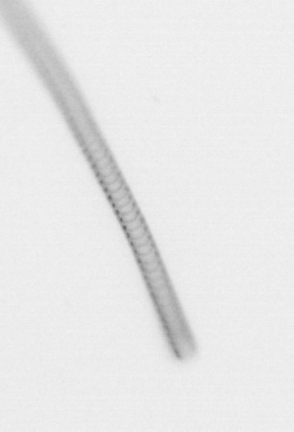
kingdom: Chromista
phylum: Ochrophyta
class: Bacillariophyceae
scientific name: Bacillariophyceae
